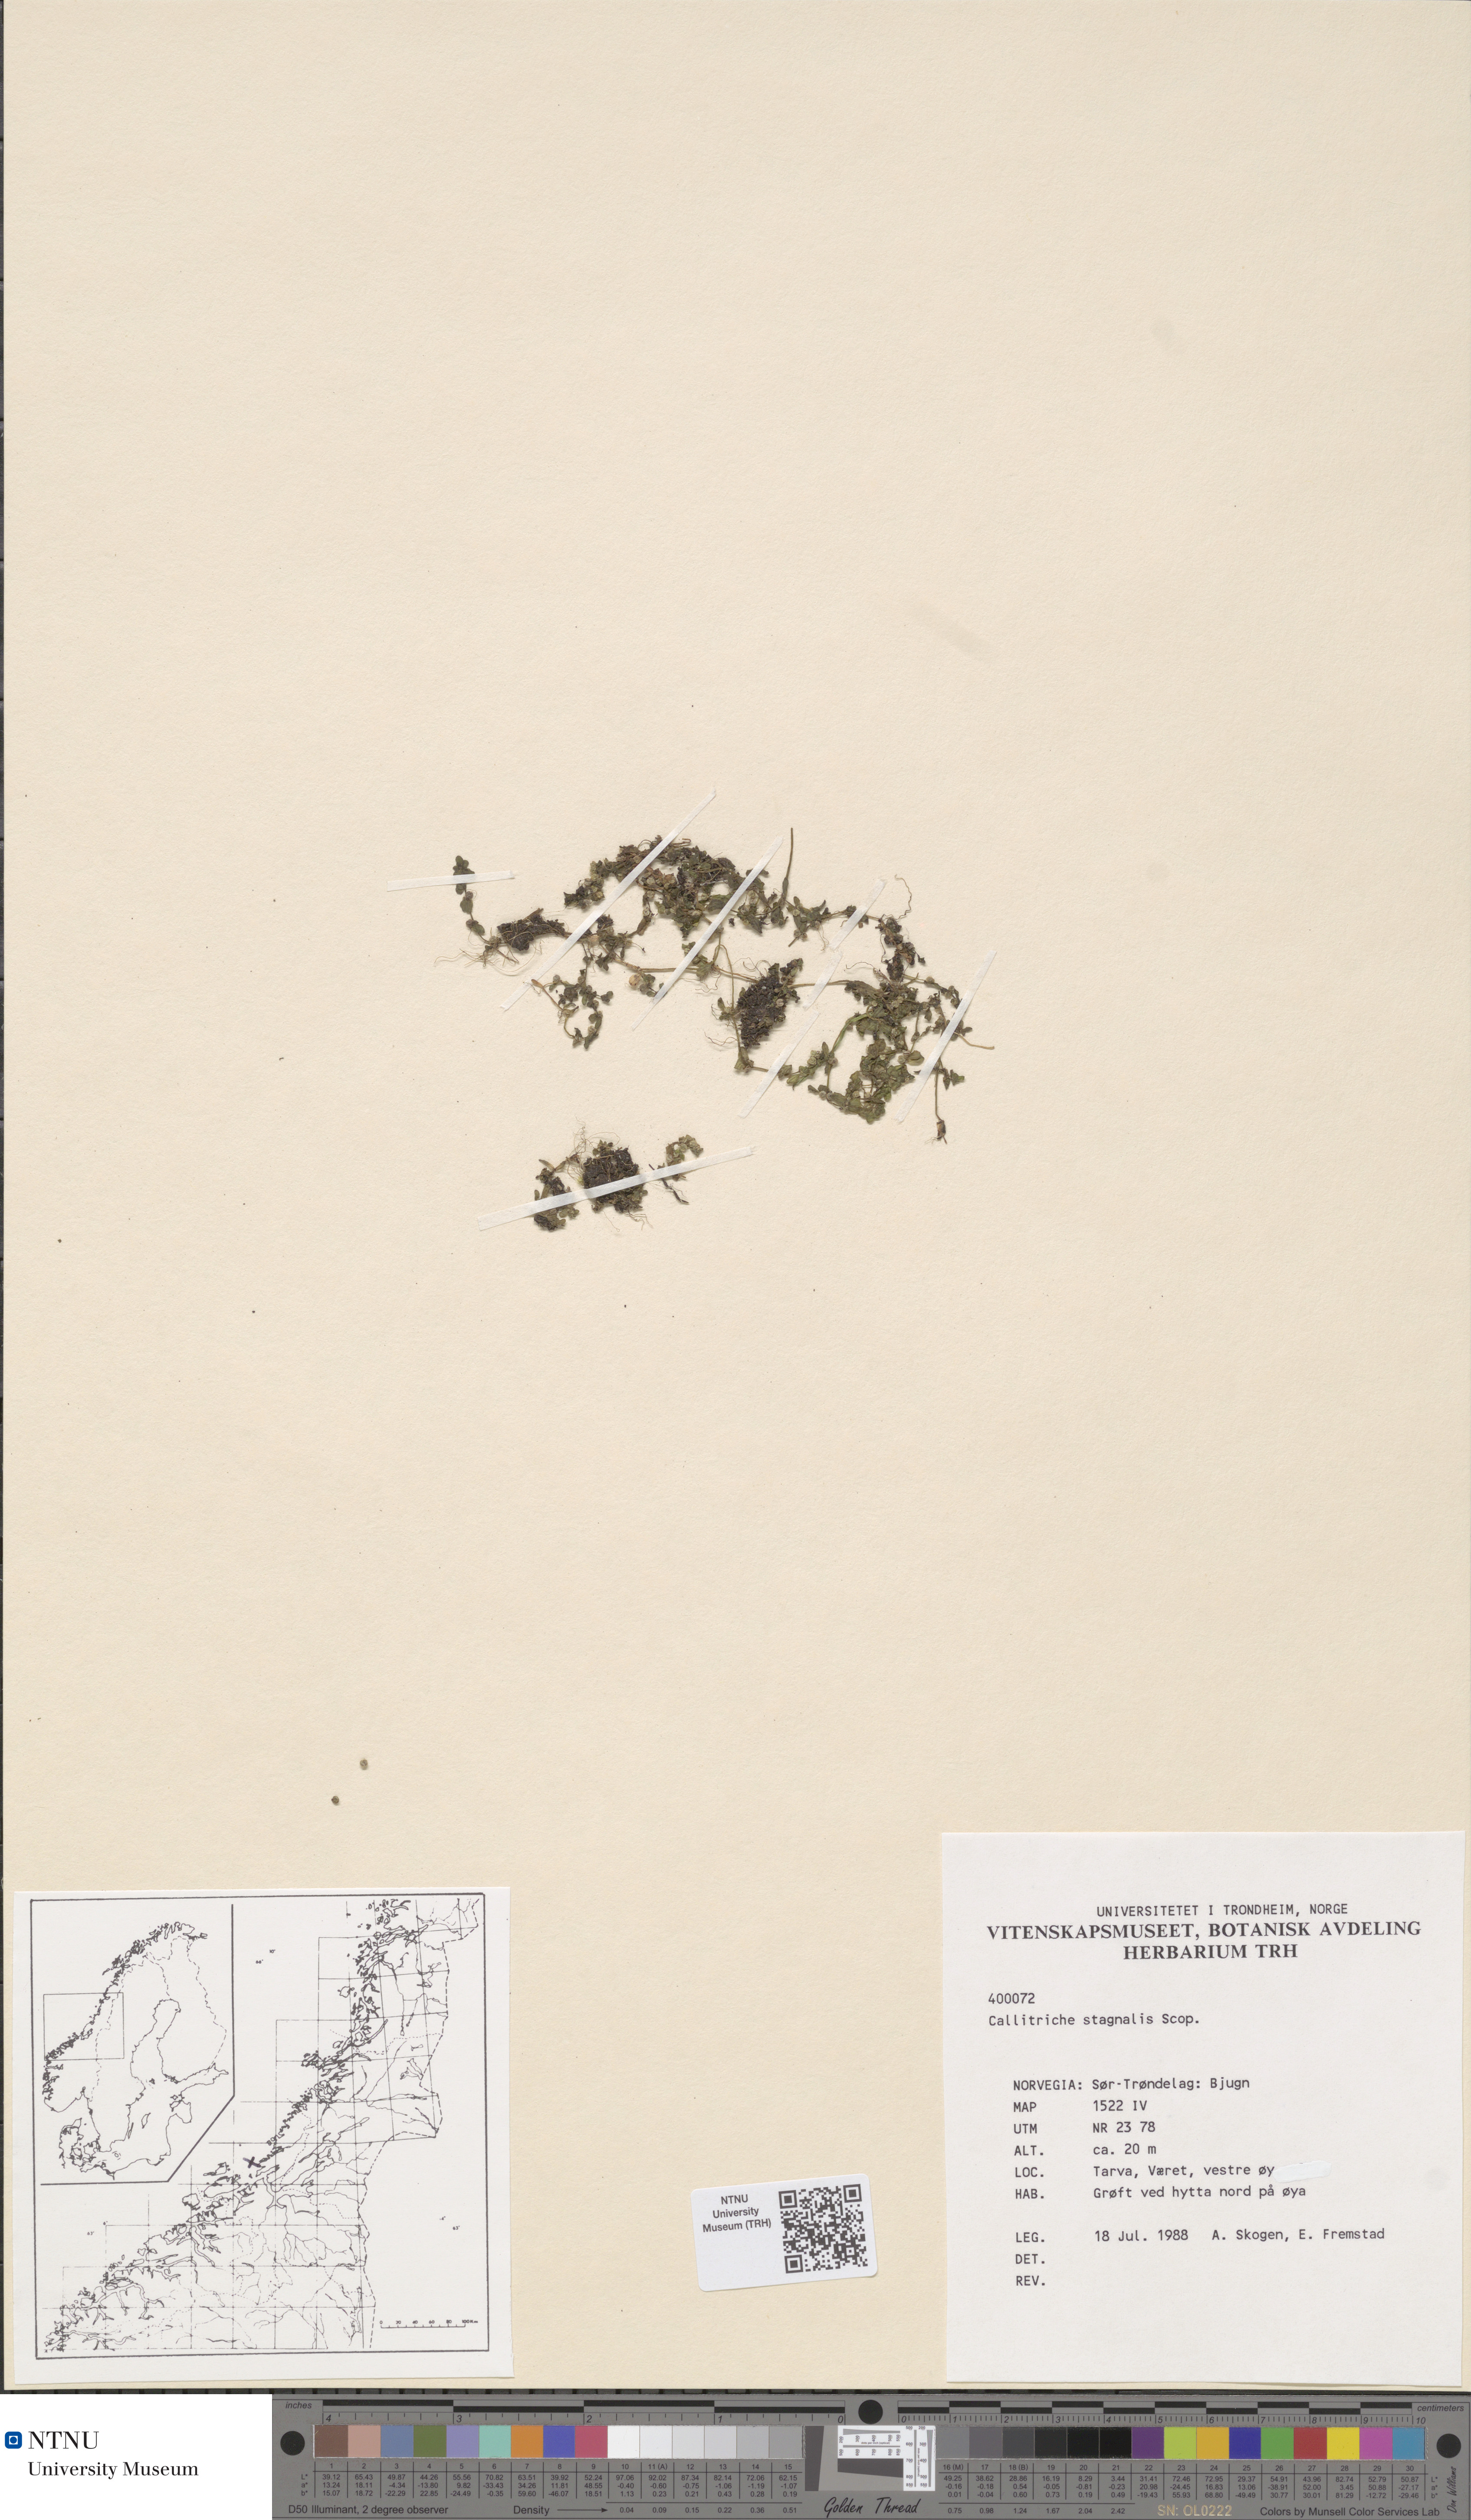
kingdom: Plantae
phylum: Tracheophyta
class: Magnoliopsida
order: Lamiales
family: Plantaginaceae
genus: Callitriche
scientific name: Callitriche stagnalis
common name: Common water-starwort
